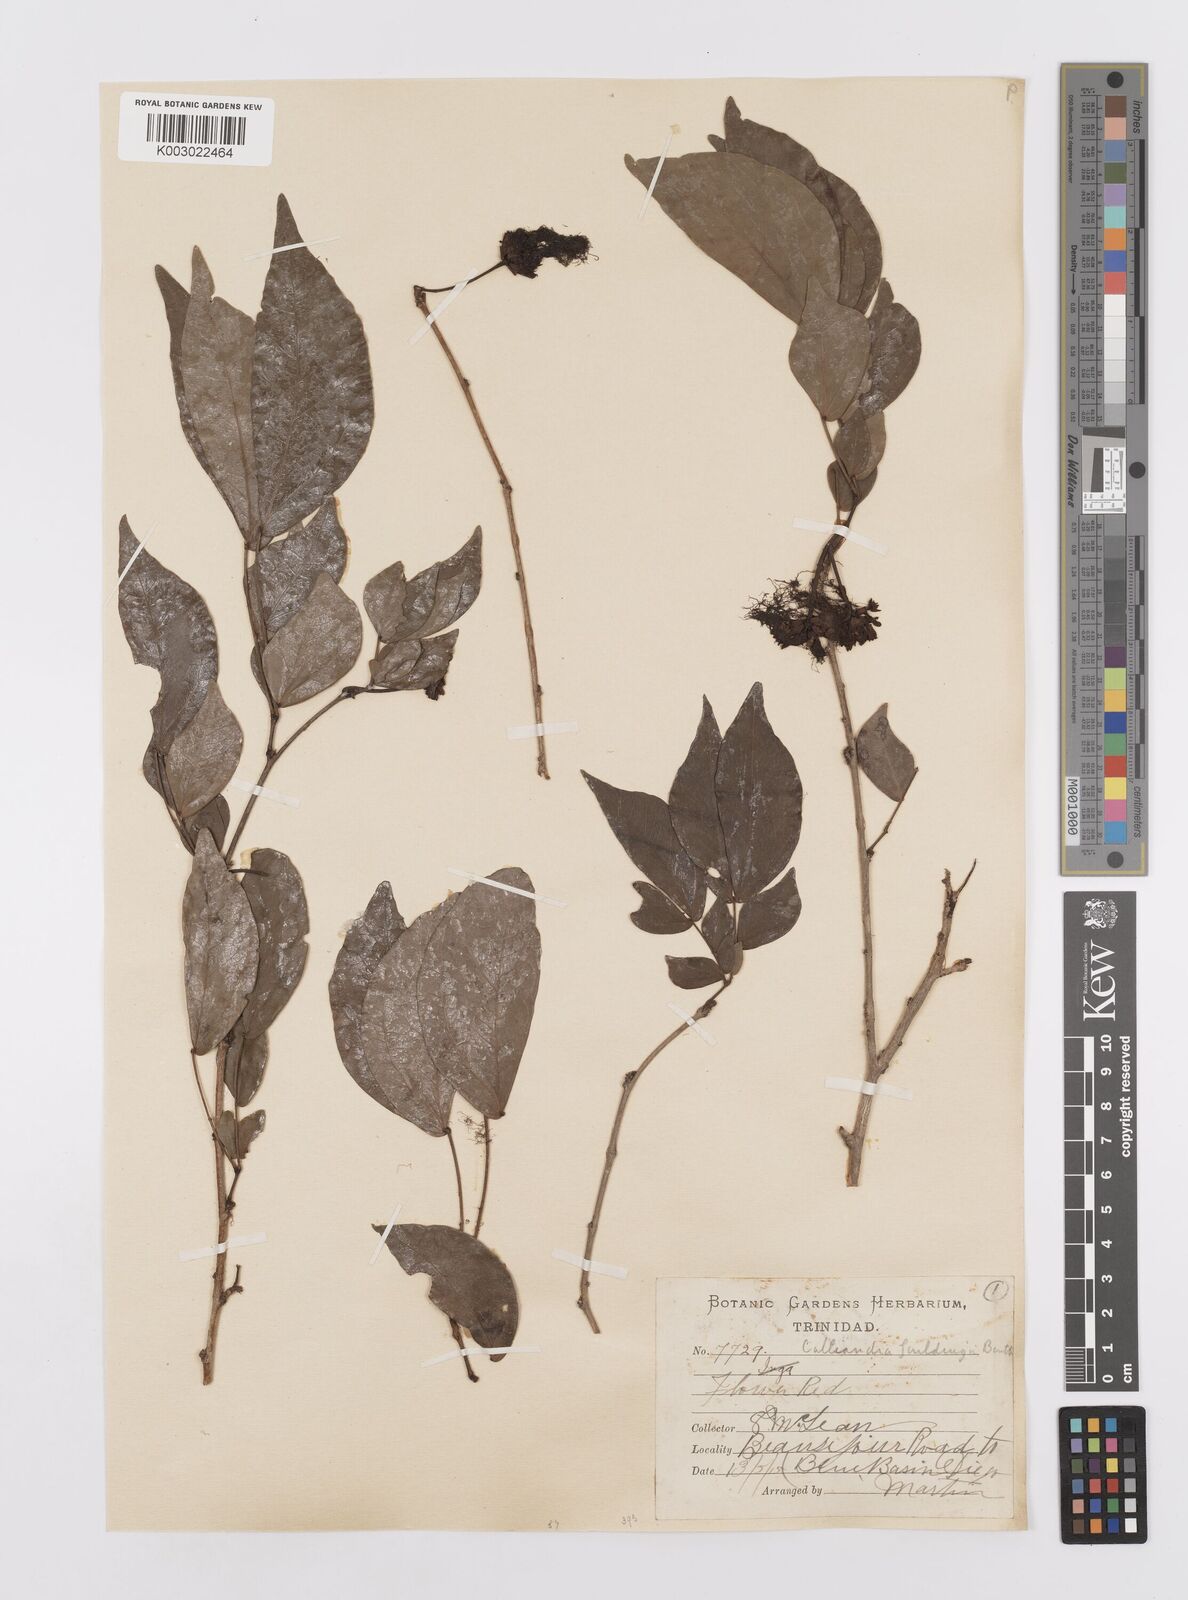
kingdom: Plantae
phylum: Tracheophyta
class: Magnoliopsida
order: Fabales
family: Fabaceae
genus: Calliandra
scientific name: Calliandra guildingii
